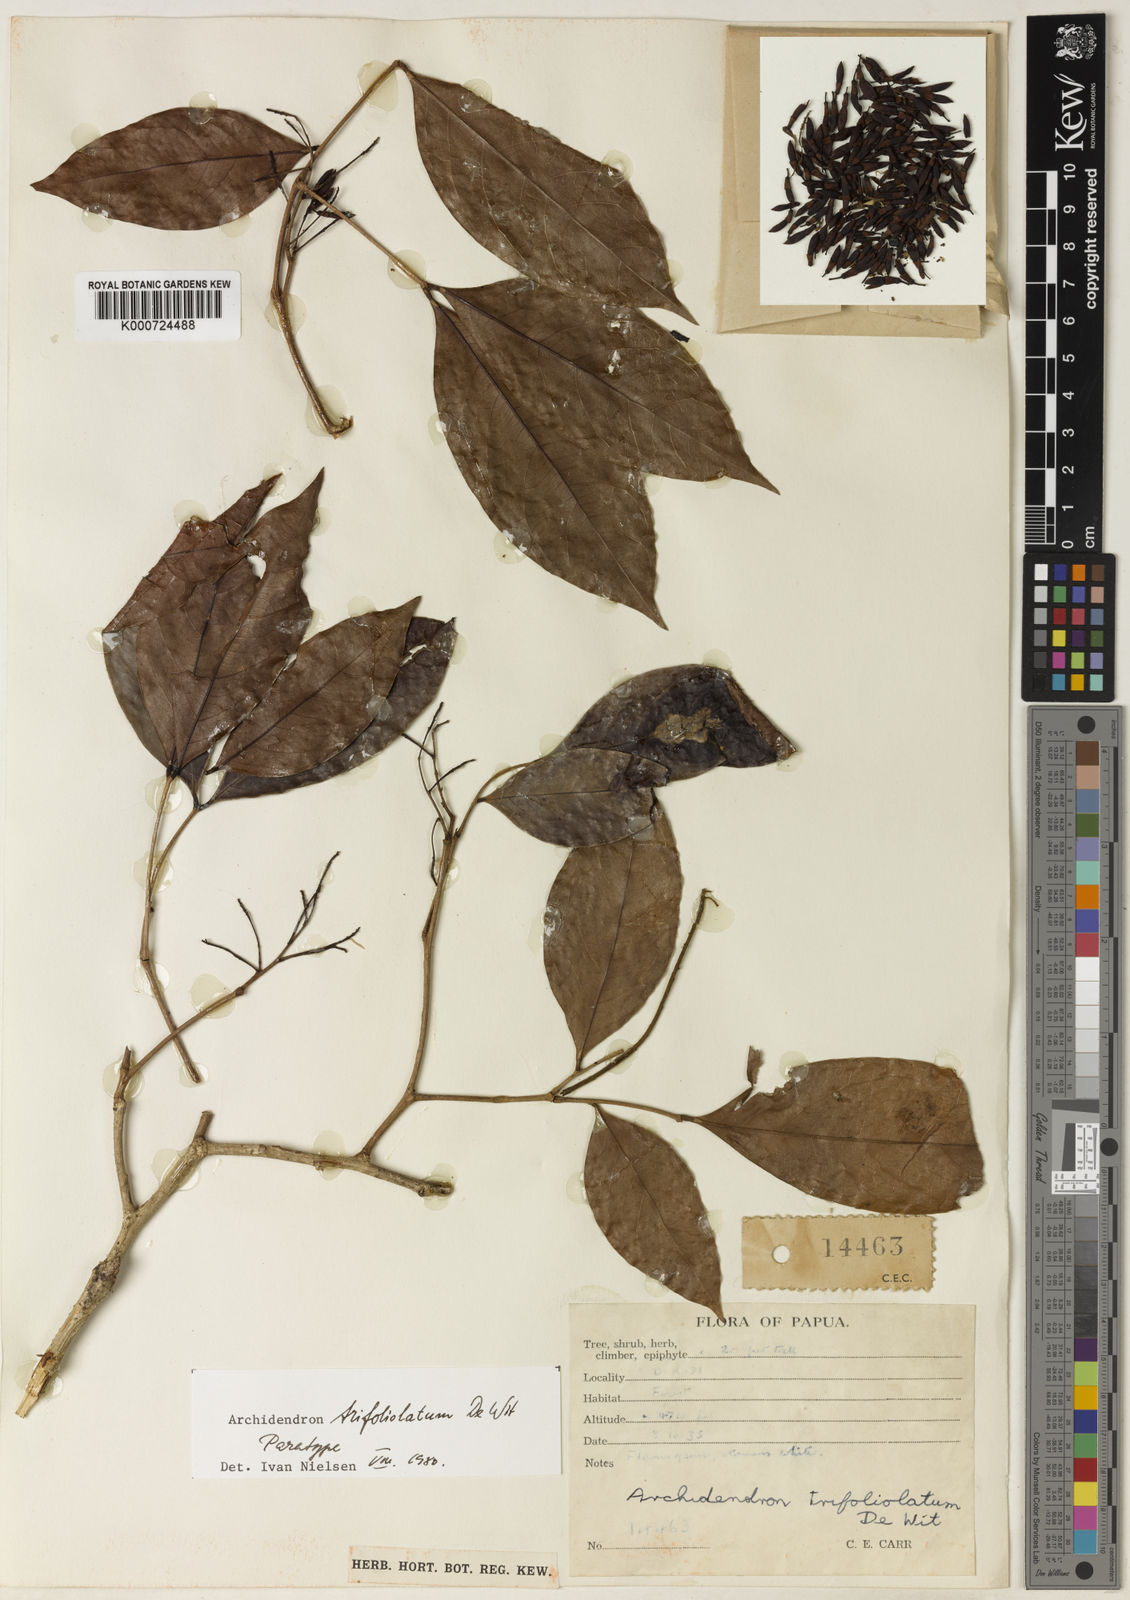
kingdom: Plantae
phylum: Tracheophyta
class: Magnoliopsida
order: Fabales
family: Fabaceae
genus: Archidendron
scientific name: Archidendron trifoliolatum
